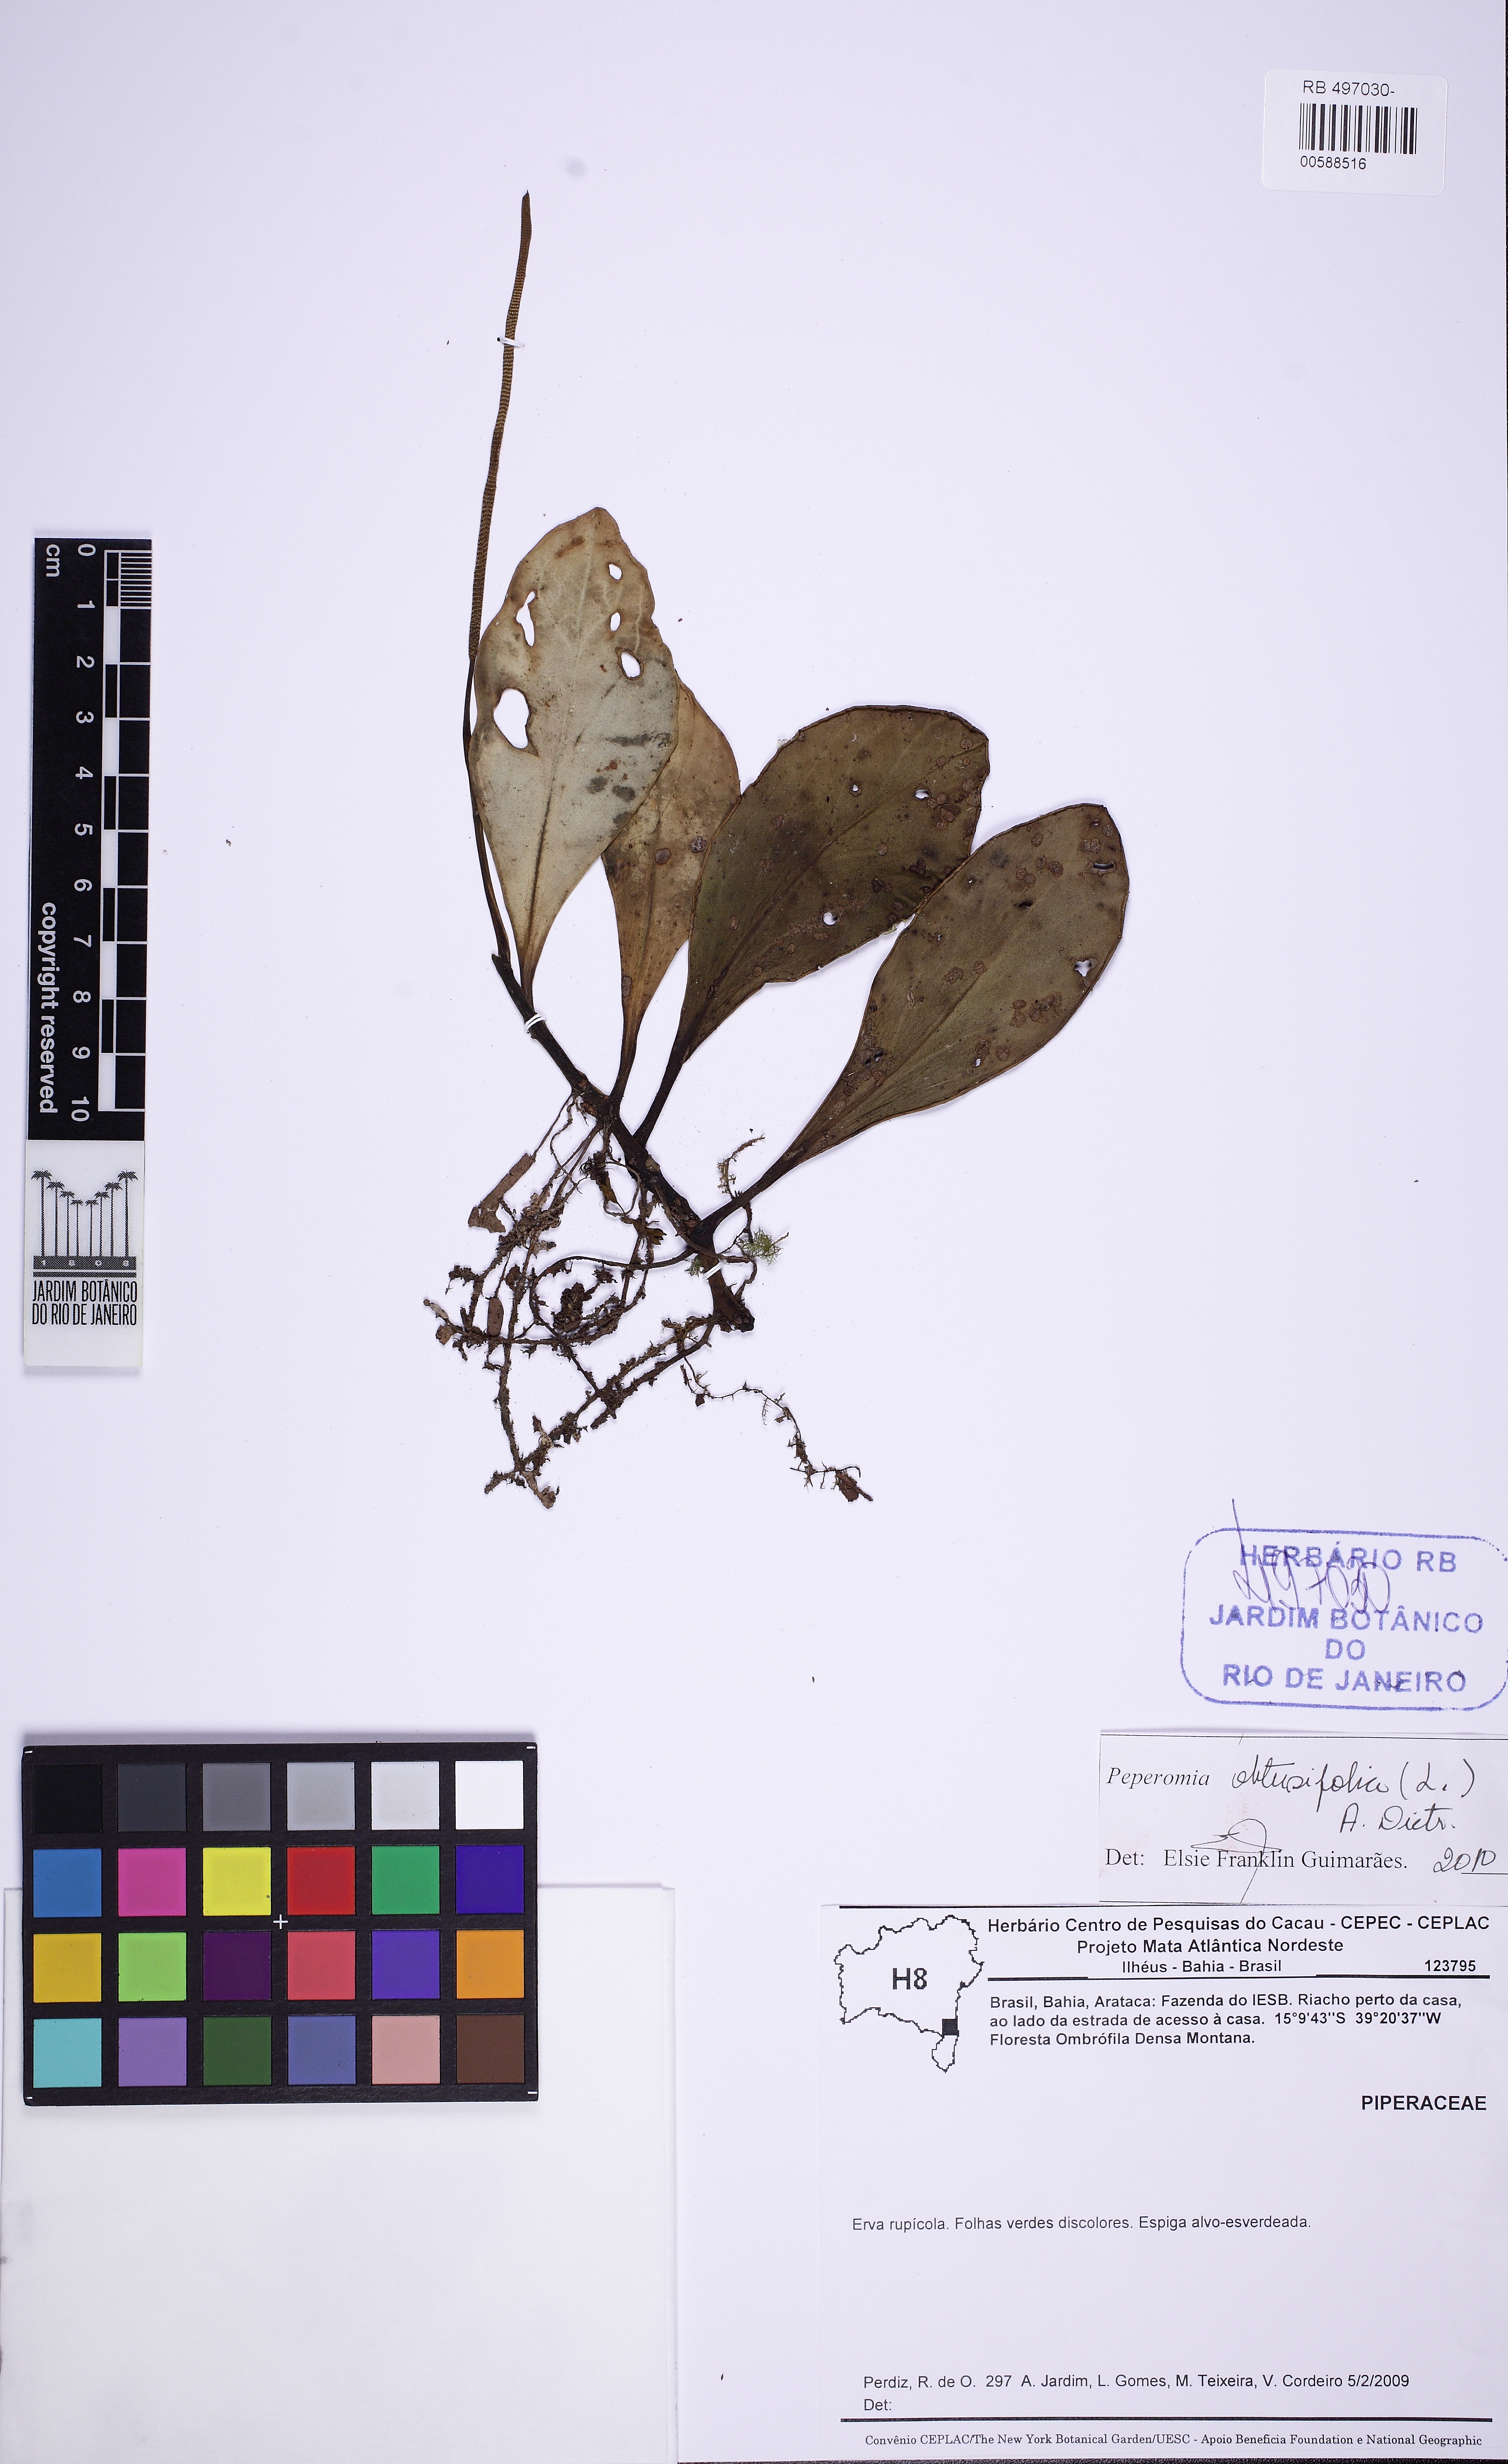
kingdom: Plantae
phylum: Tracheophyta
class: Magnoliopsida
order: Piperales
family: Piperaceae
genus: Peperomia
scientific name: Peperomia obtusifolia
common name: Baby rubberplant
